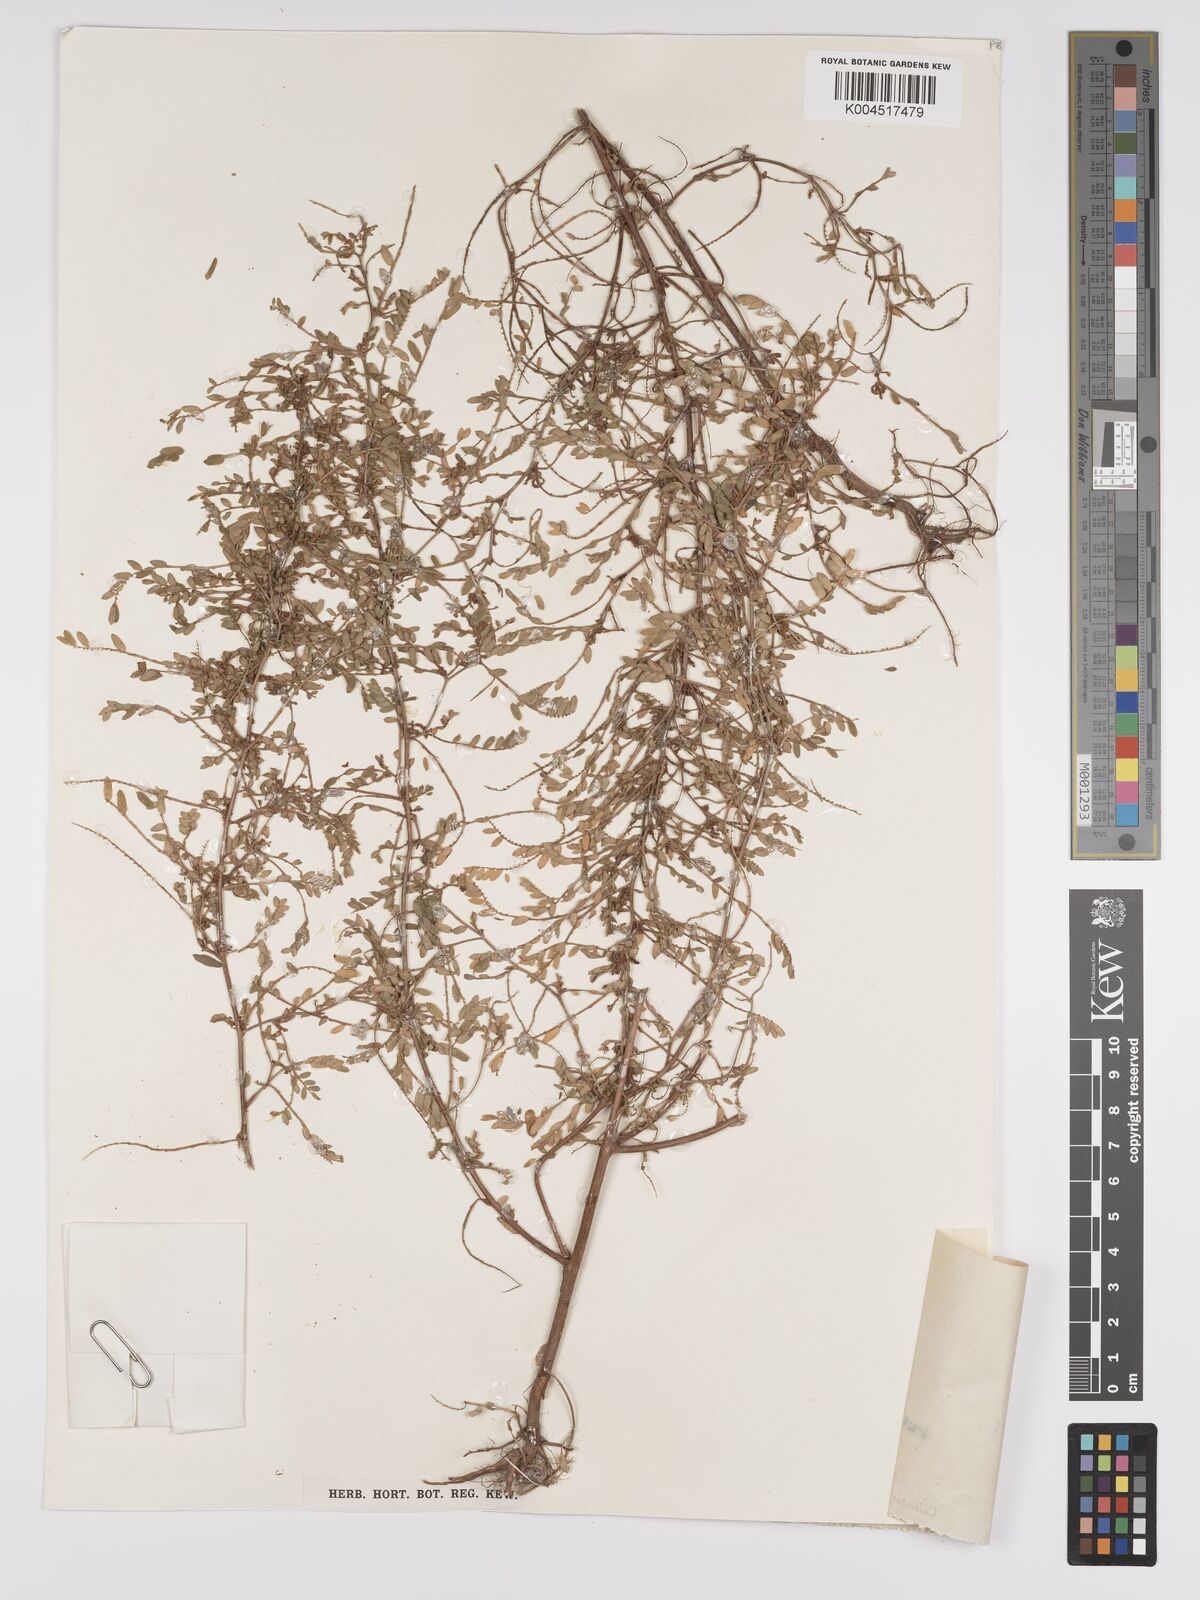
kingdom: Plantae
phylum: Tracheophyta
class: Magnoliopsida
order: Malpighiales
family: Phyllanthaceae
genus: Phyllanthus
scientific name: Phyllanthus urinaria
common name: Chamber bitter
